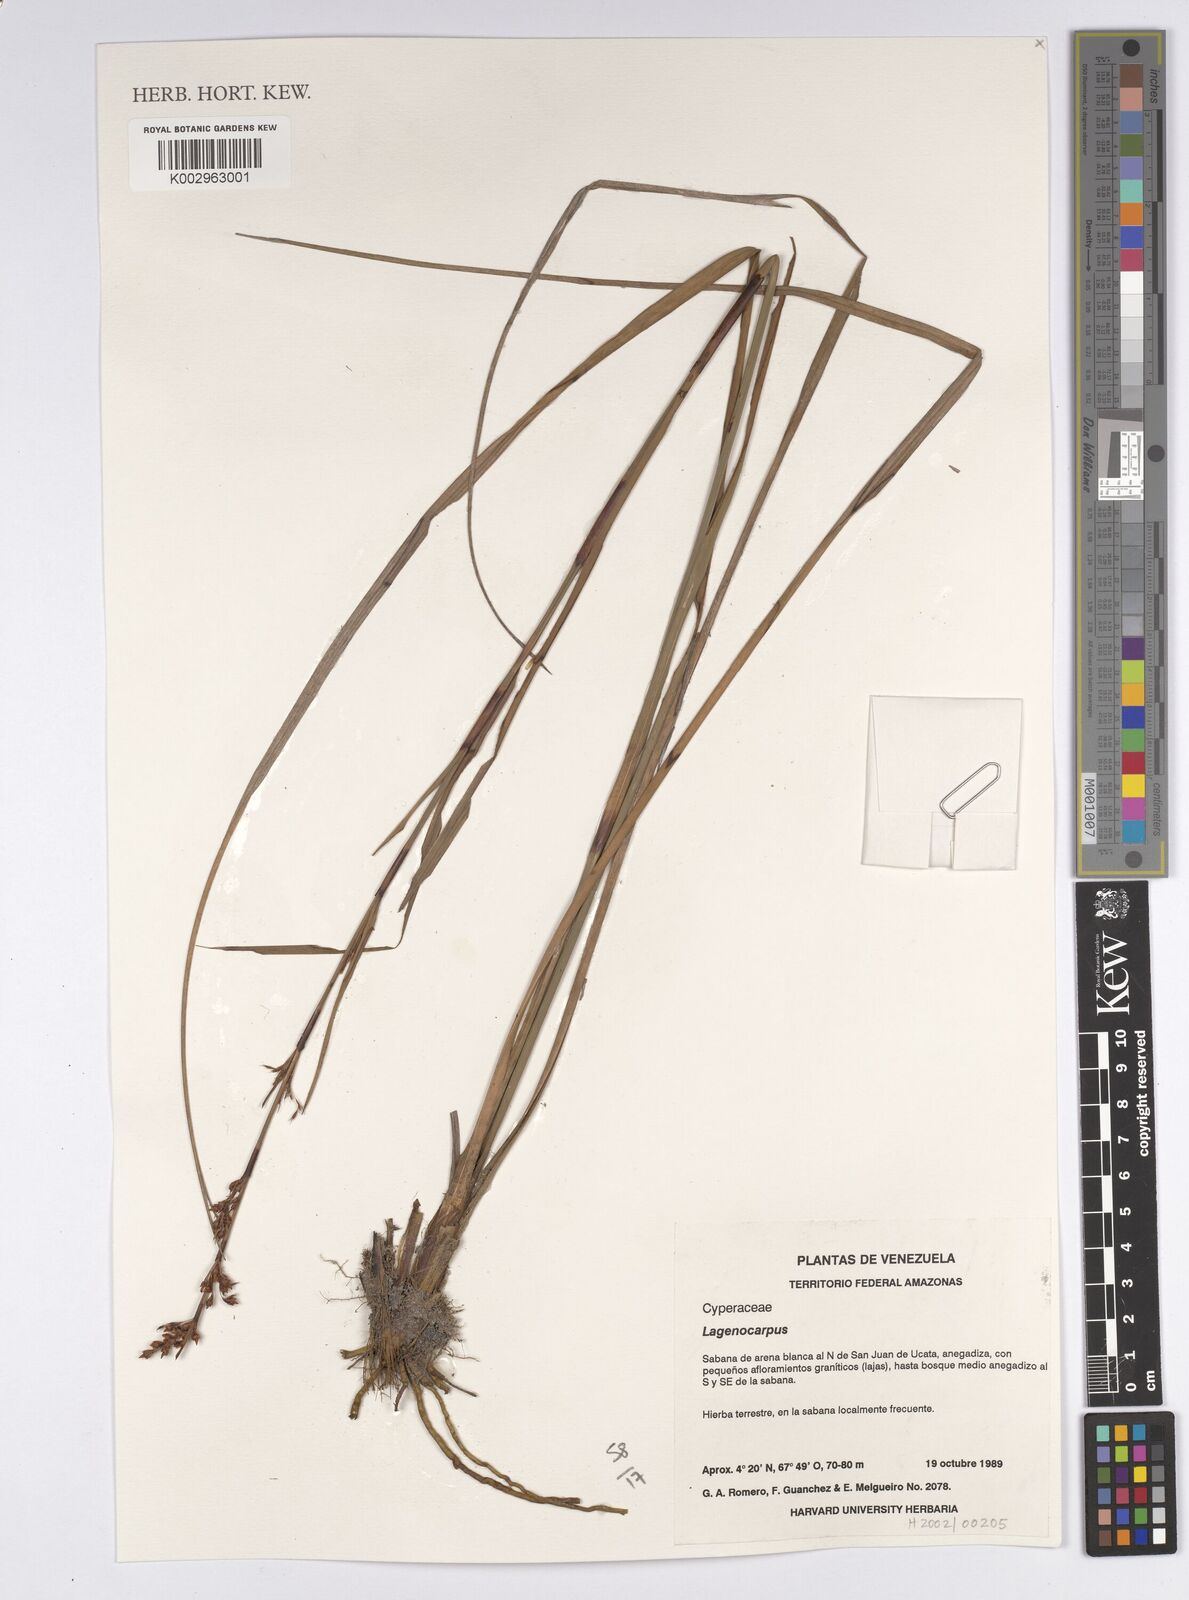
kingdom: Plantae
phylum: Tracheophyta
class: Liliopsida
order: Poales
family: Cyperaceae
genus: Lagenocarpus
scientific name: Lagenocarpus
